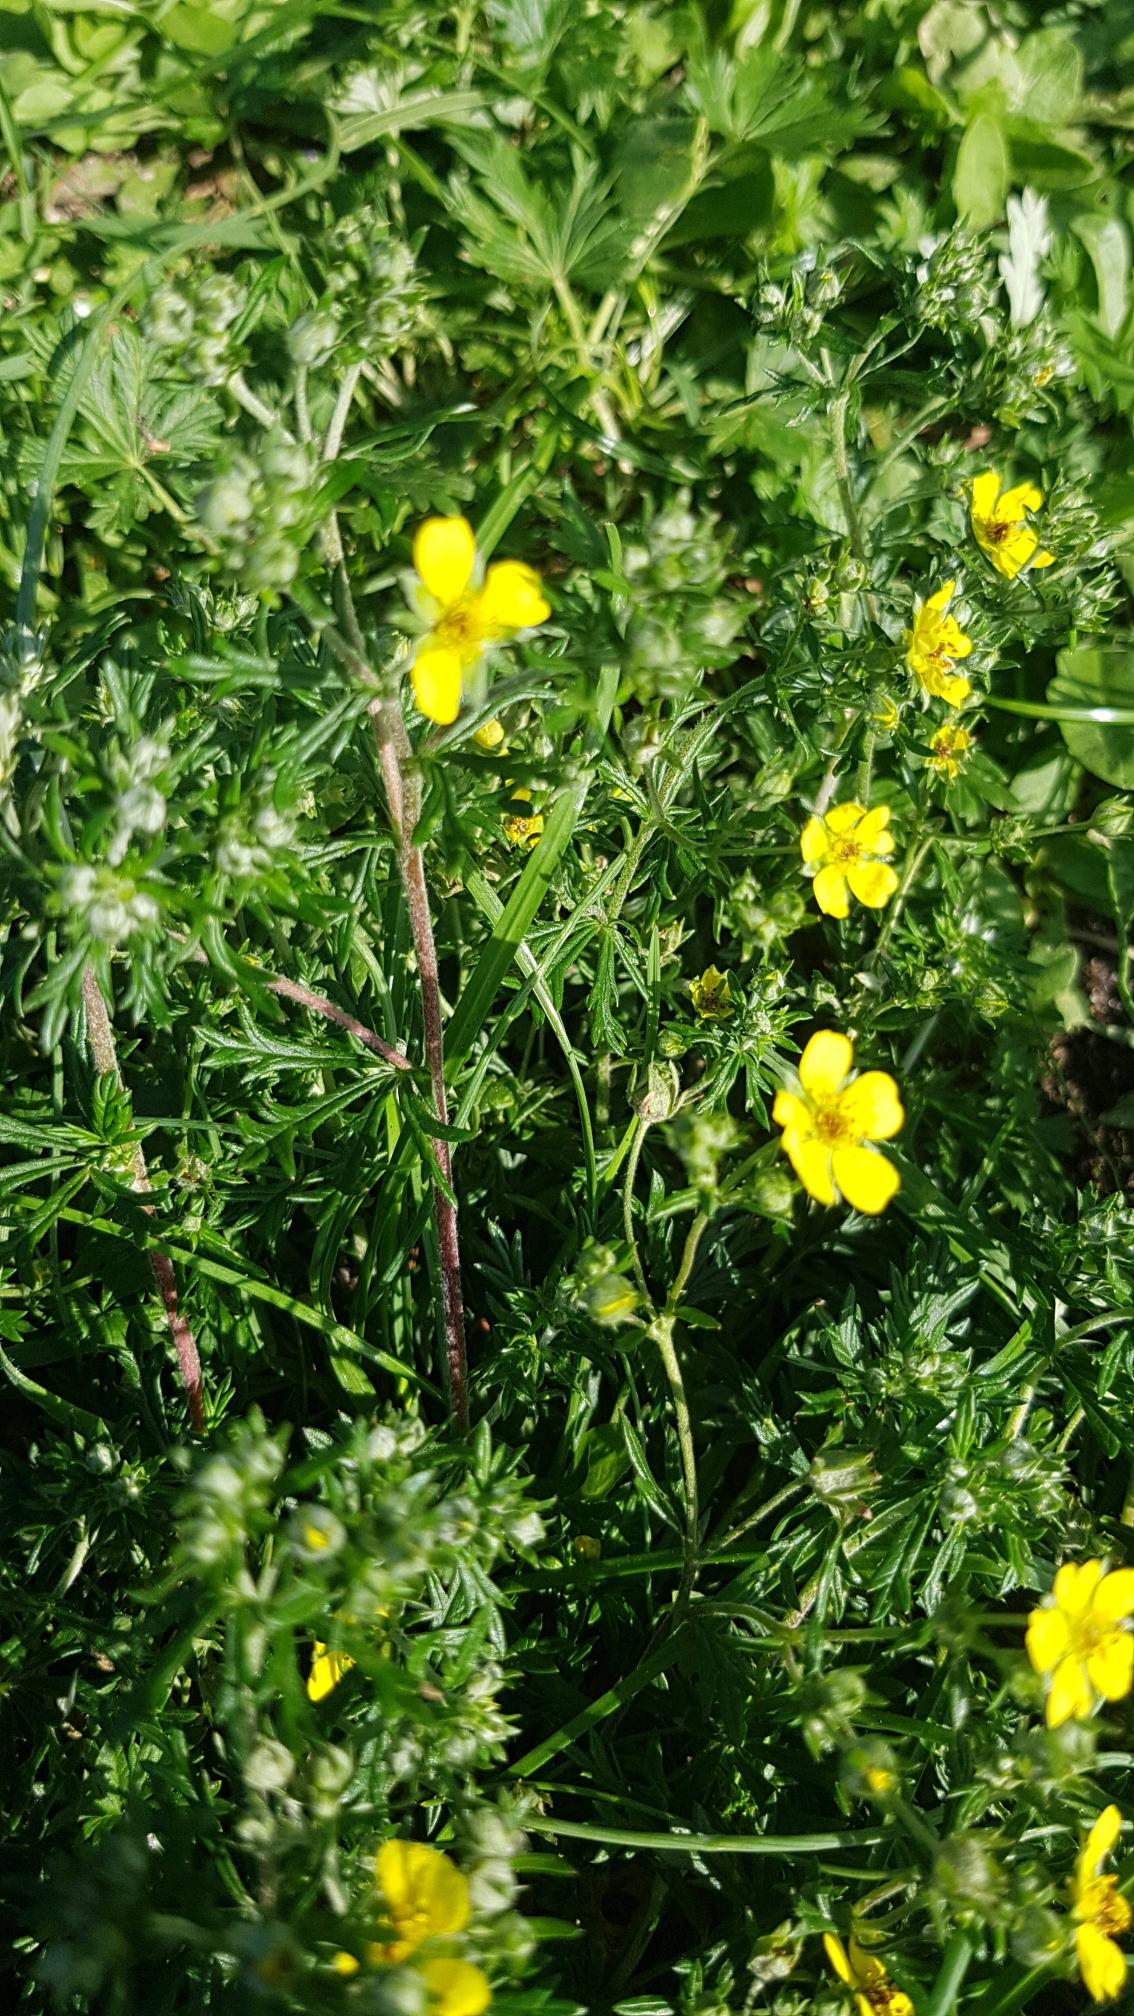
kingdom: Plantae
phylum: Tracheophyta
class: Magnoliopsida
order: Rosales
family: Rosaceae
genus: Potentilla
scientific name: Potentilla argentea
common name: Sølv-potentil
